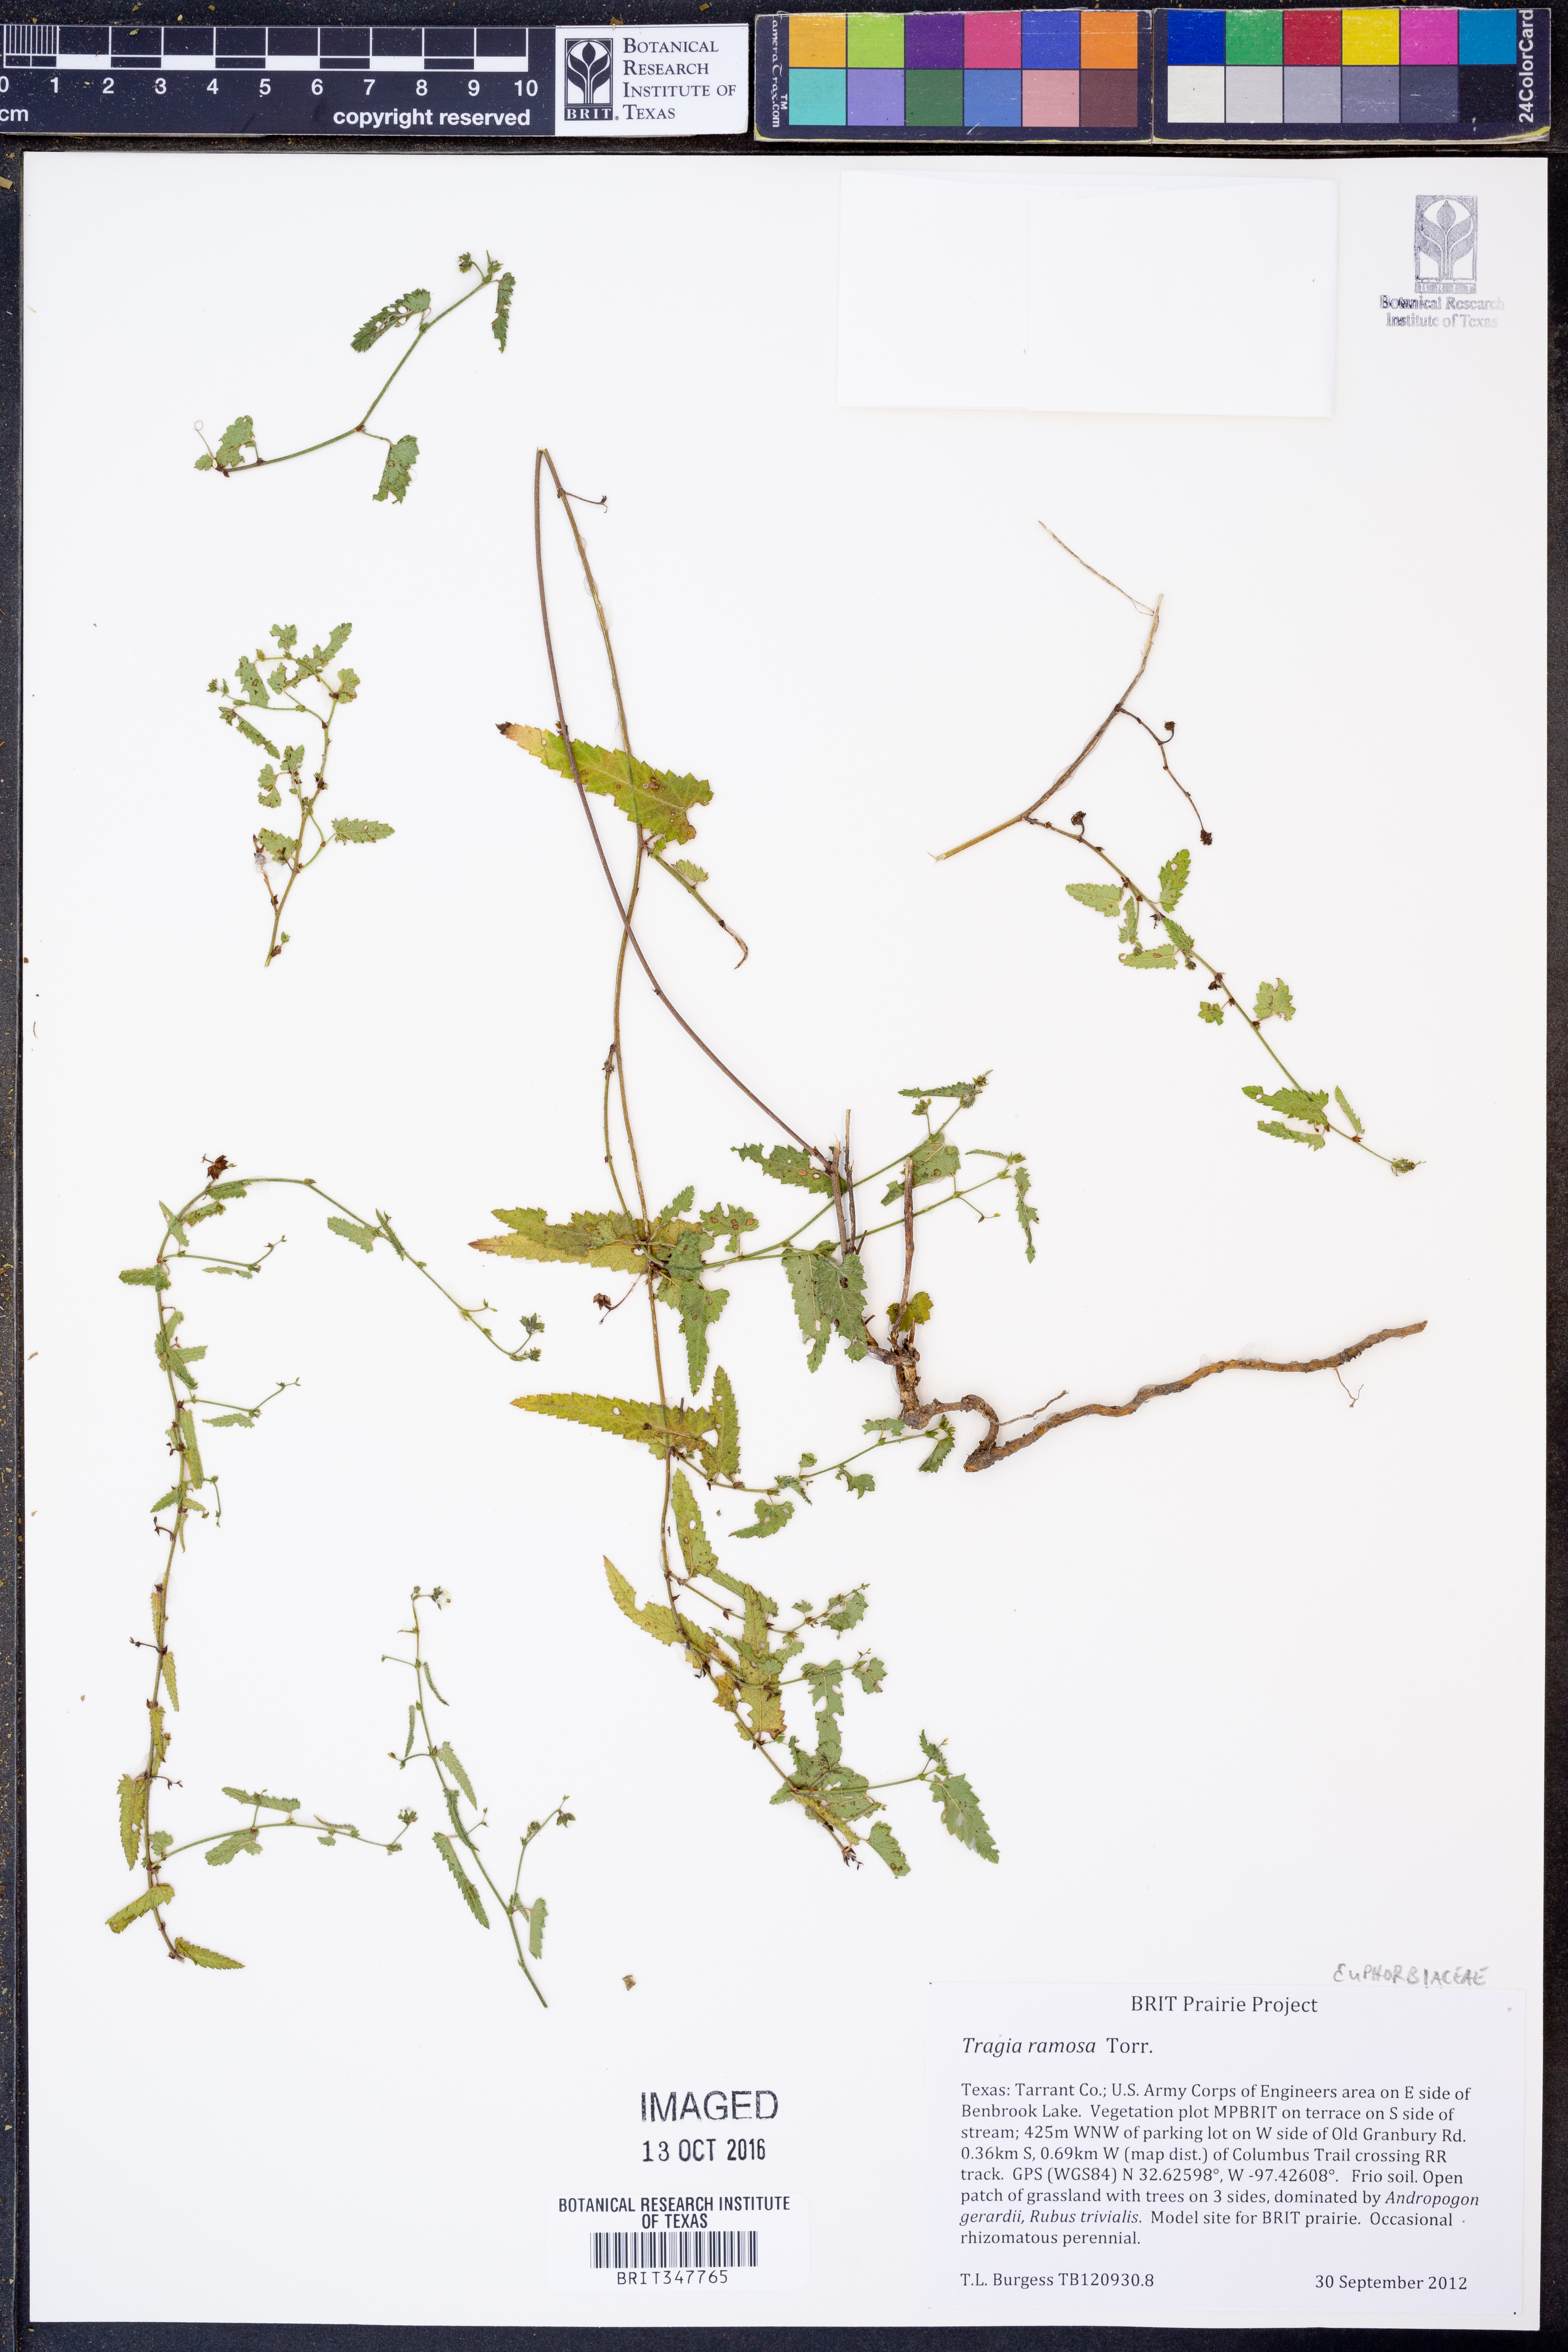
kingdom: Plantae
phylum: Tracheophyta
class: Magnoliopsida
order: Malpighiales
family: Euphorbiaceae
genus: Tragia
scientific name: Tragia ramosa
